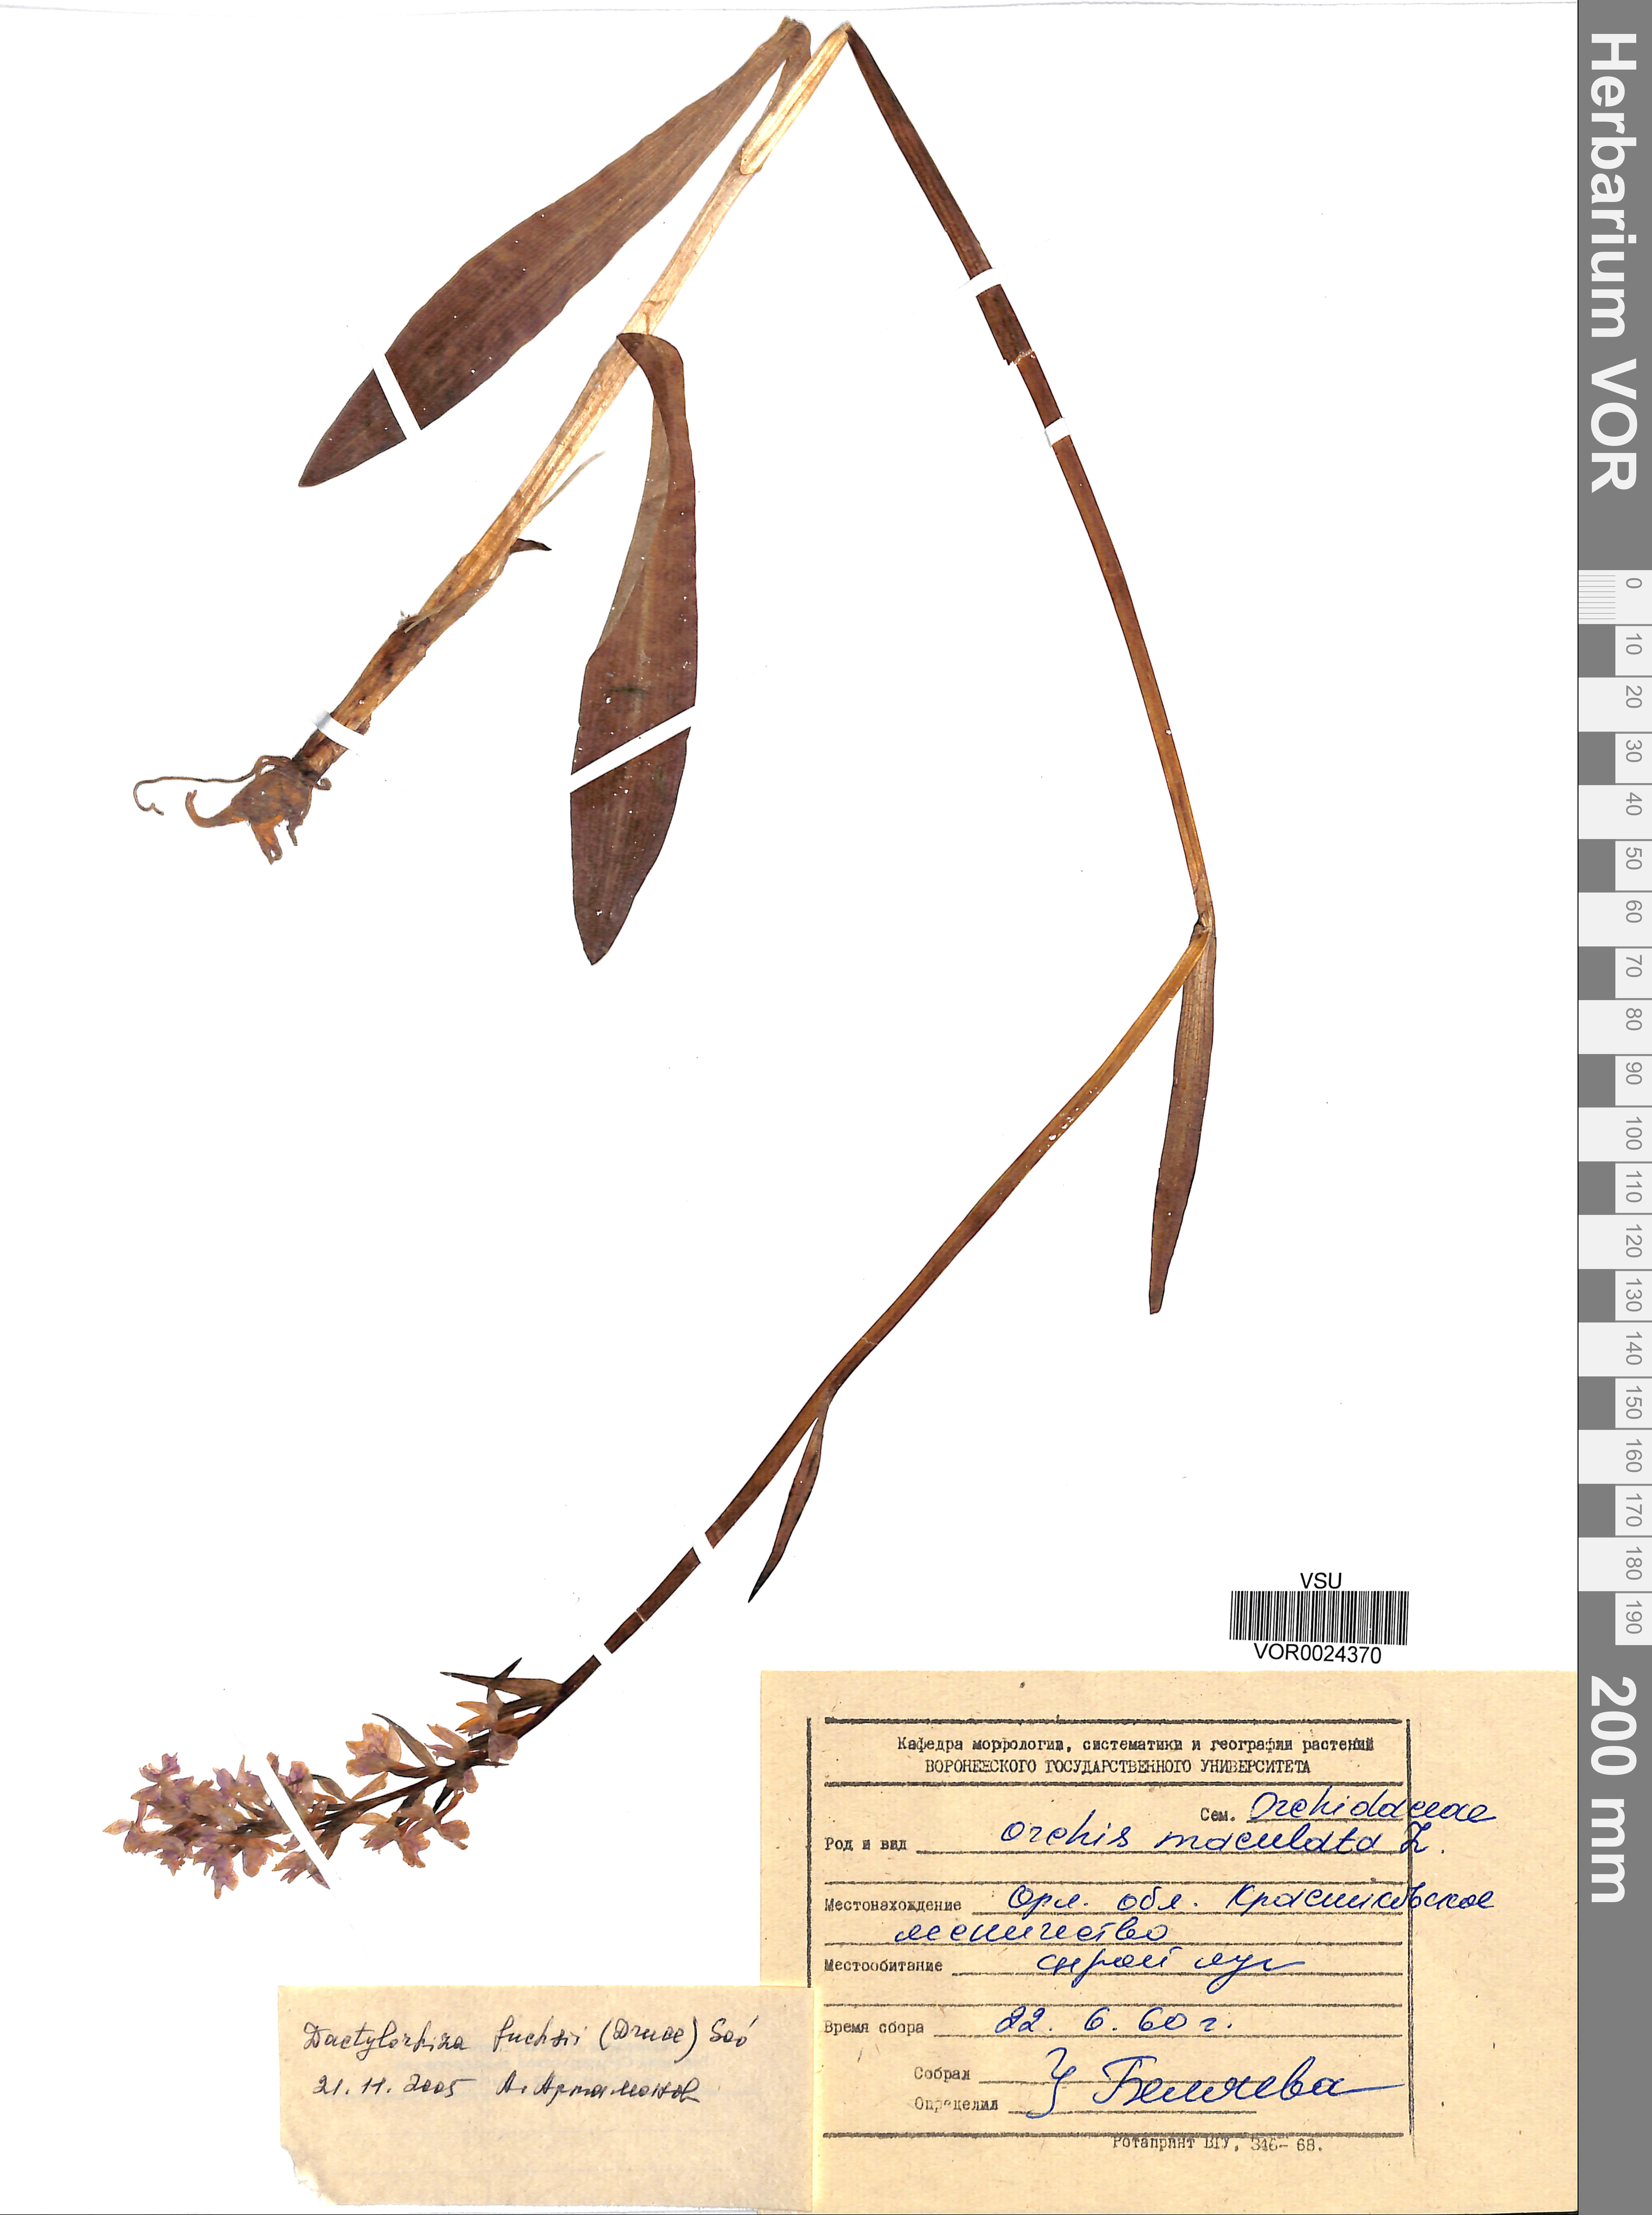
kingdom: Plantae
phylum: Tracheophyta
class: Liliopsida
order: Asparagales
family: Orchidaceae
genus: Dactylorhiza
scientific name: Dactylorhiza maculata
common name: Heath spotted-orchid
